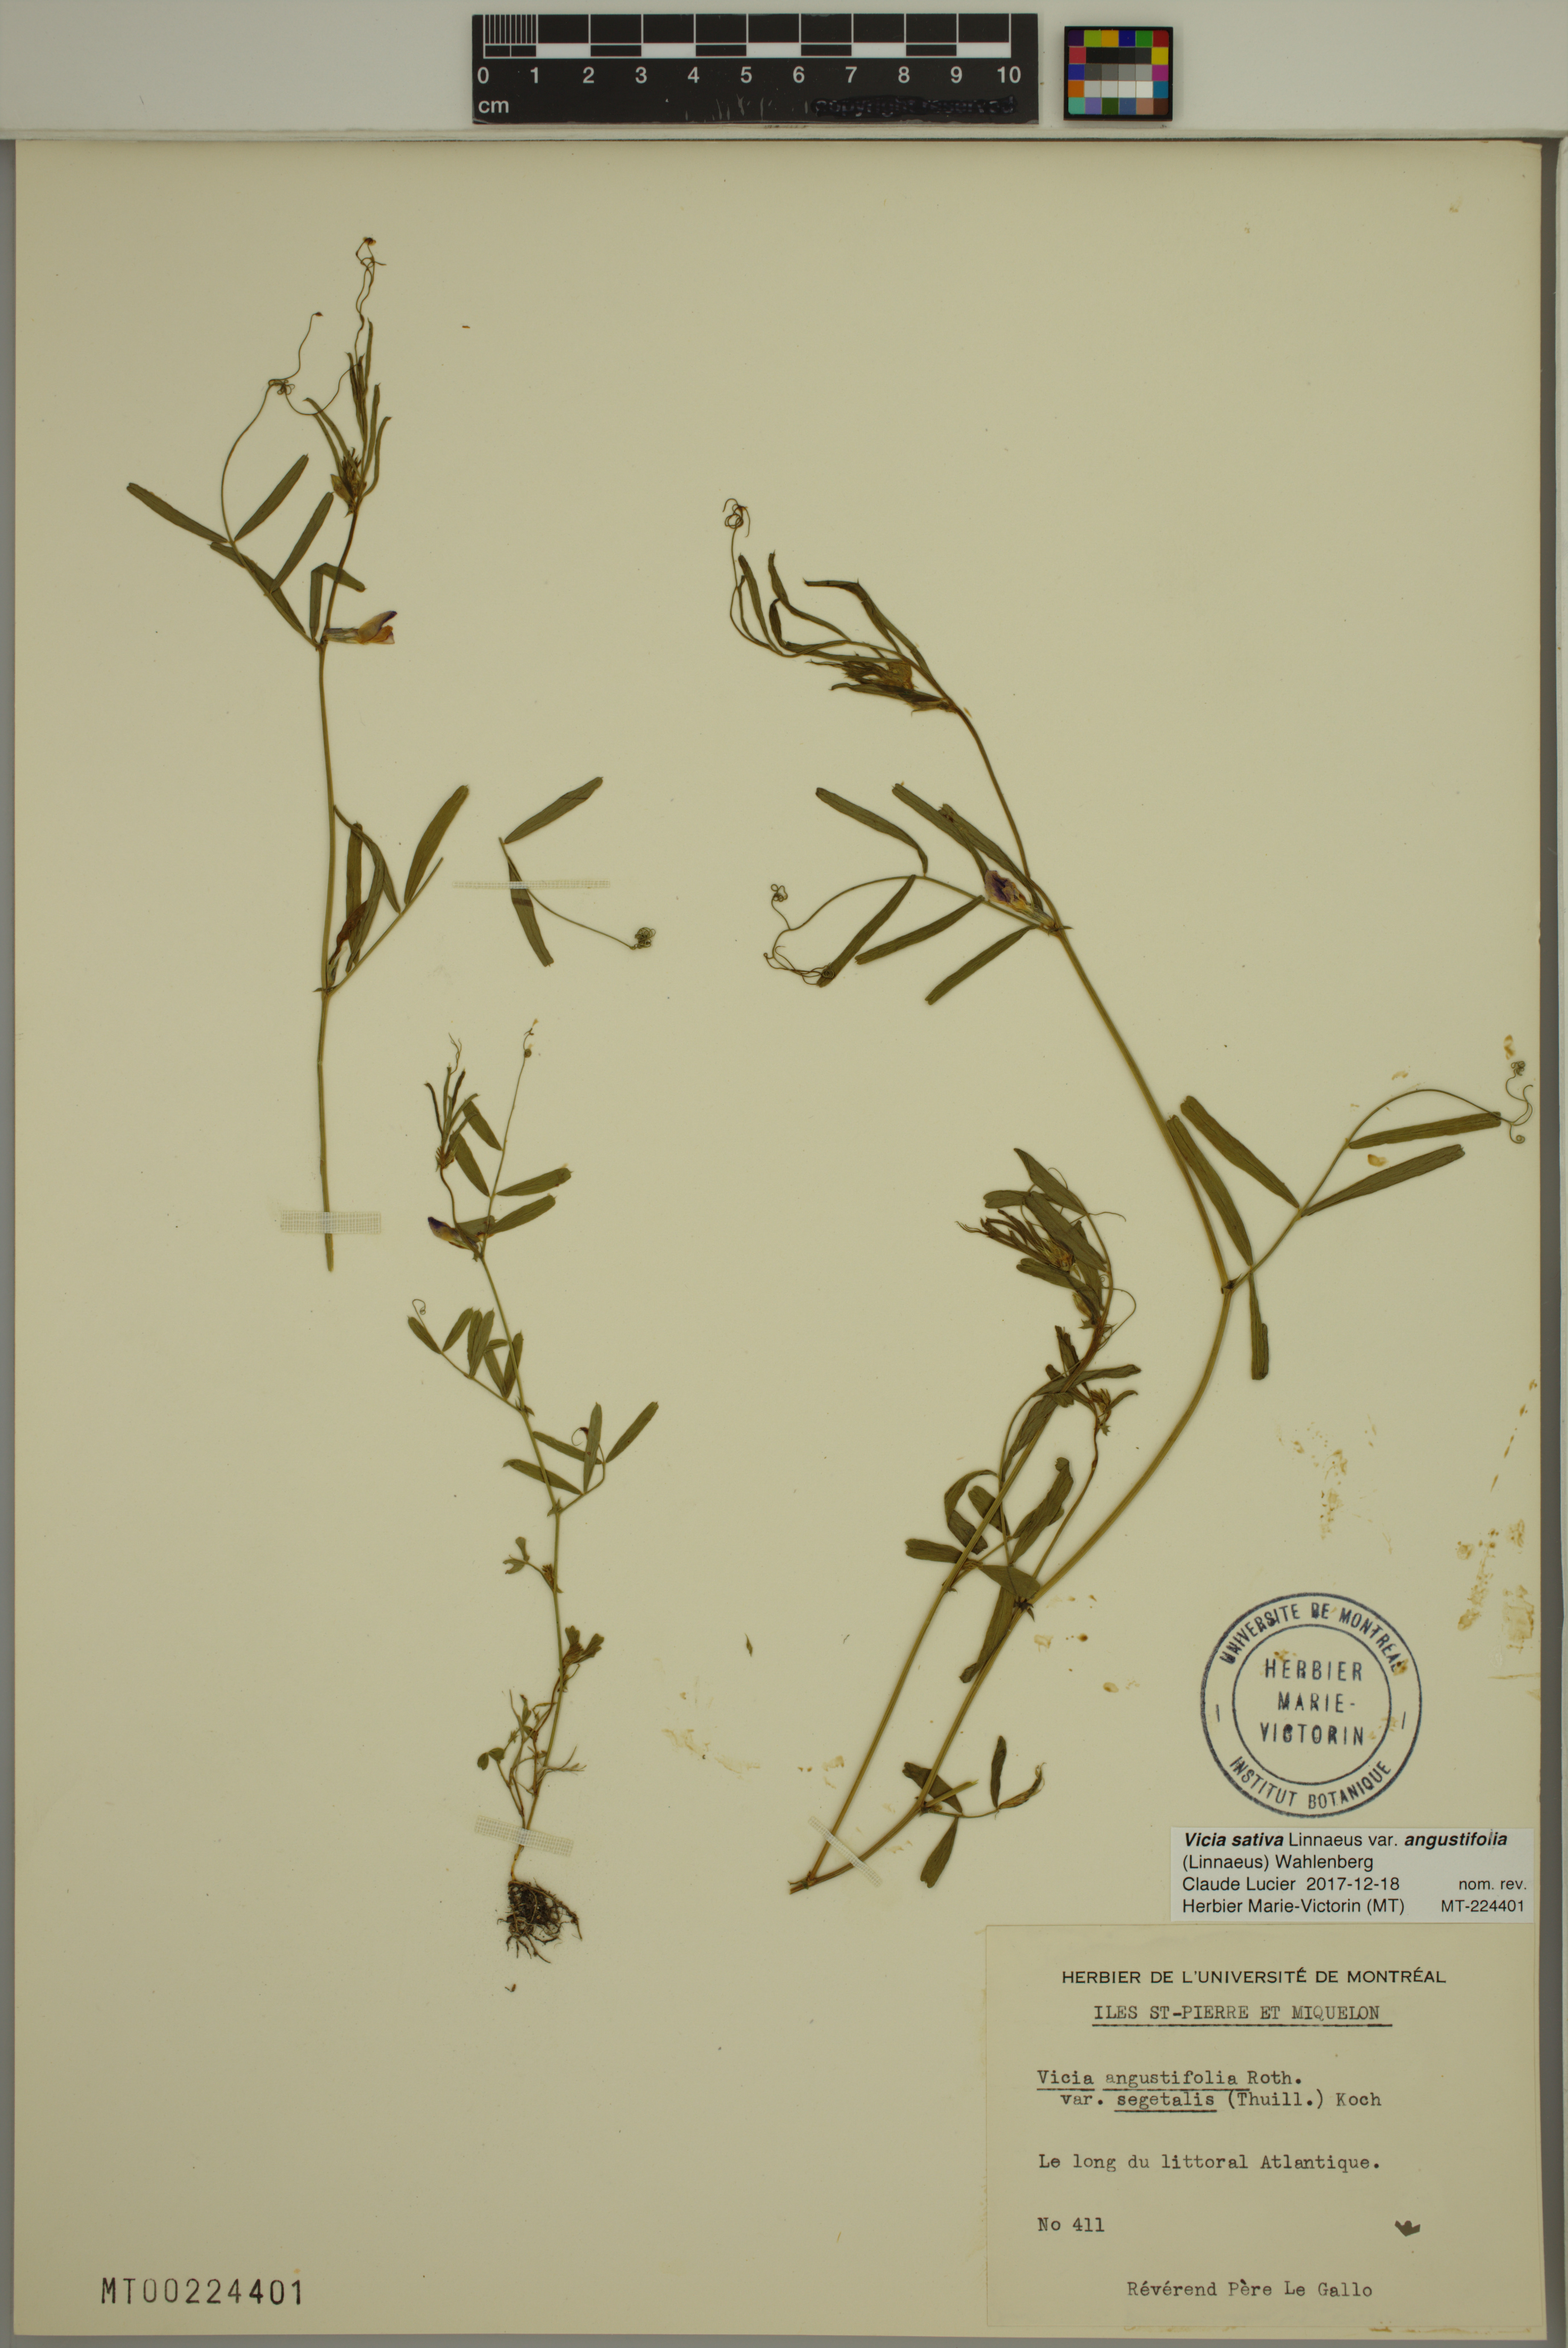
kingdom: Plantae
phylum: Tracheophyta
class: Magnoliopsida
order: Fabales
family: Fabaceae
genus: Vicia
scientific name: Vicia sativa
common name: Garden vetch
